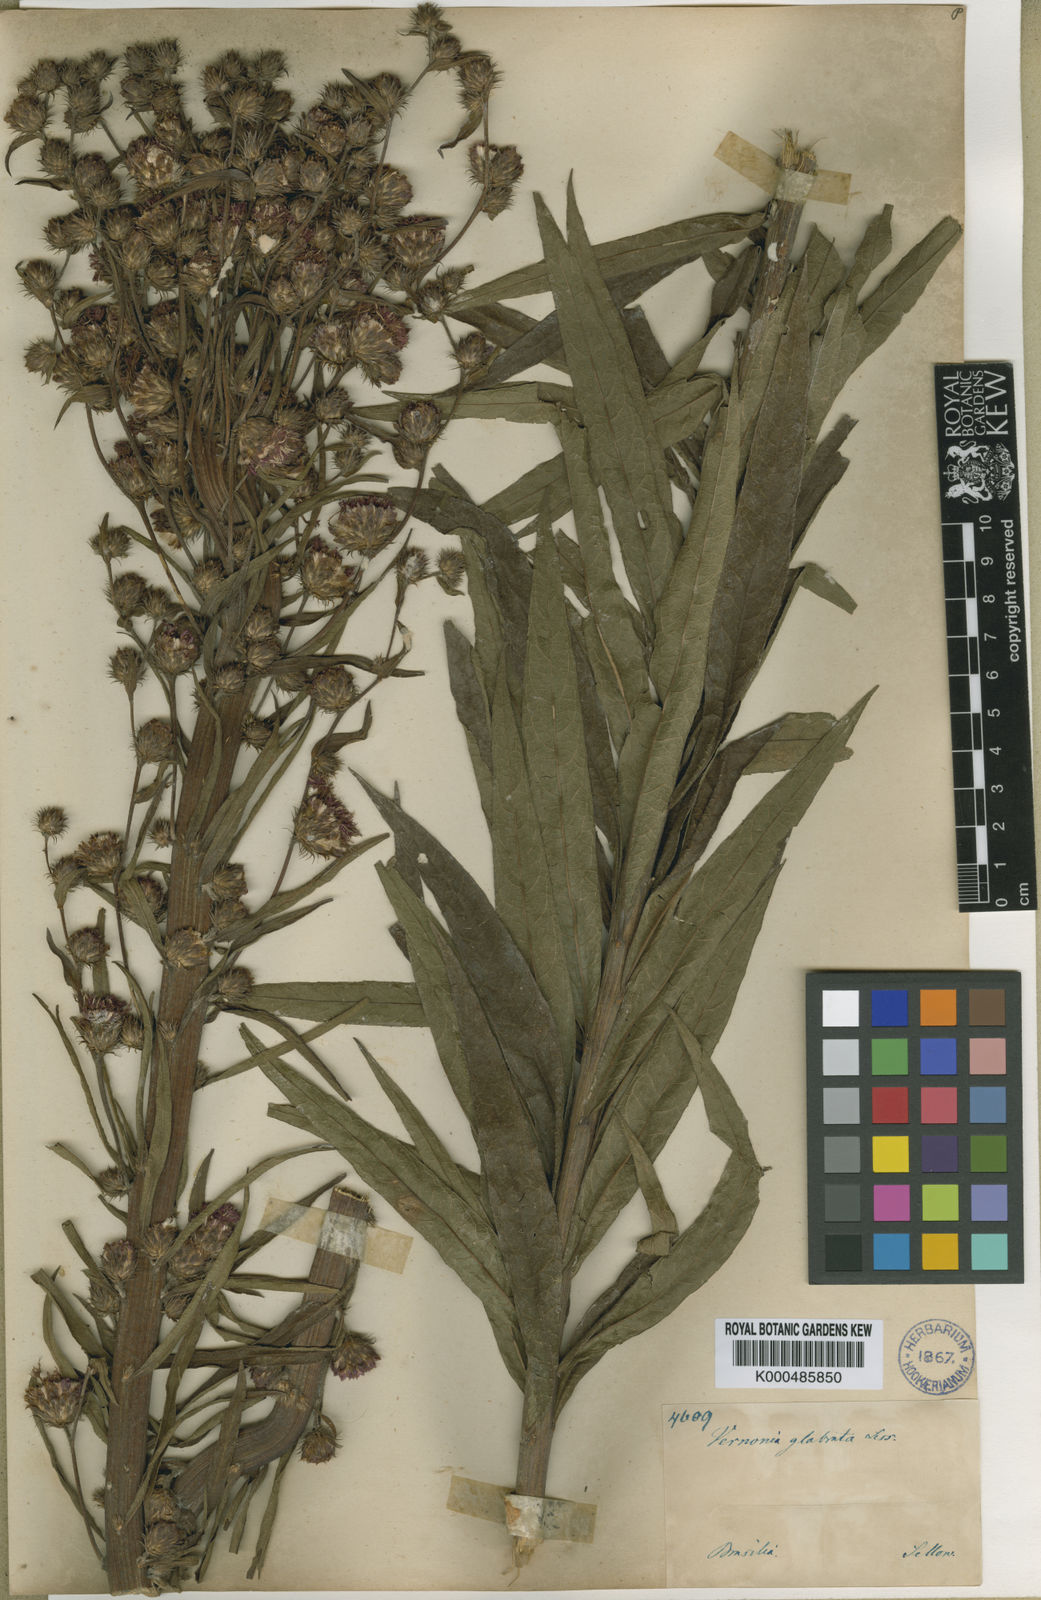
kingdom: Plantae
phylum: Tracheophyta
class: Magnoliopsida
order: Asterales
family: Asteraceae
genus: Lessingianthus
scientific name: Lessingianthus glabratus
